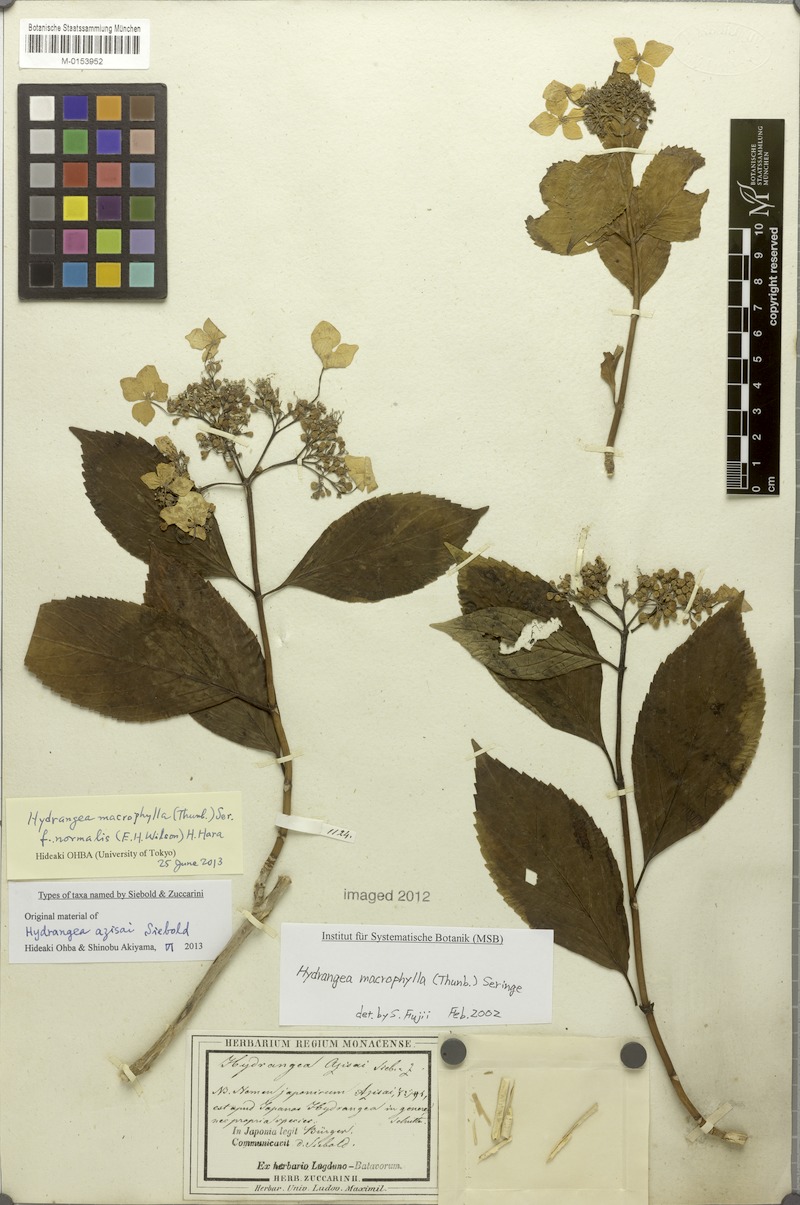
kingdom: Plantae
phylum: Tracheophyta
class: Magnoliopsida
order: Cornales
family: Hydrangeaceae
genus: Hydrangea
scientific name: Hydrangea macrophylla
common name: Hydrangea
